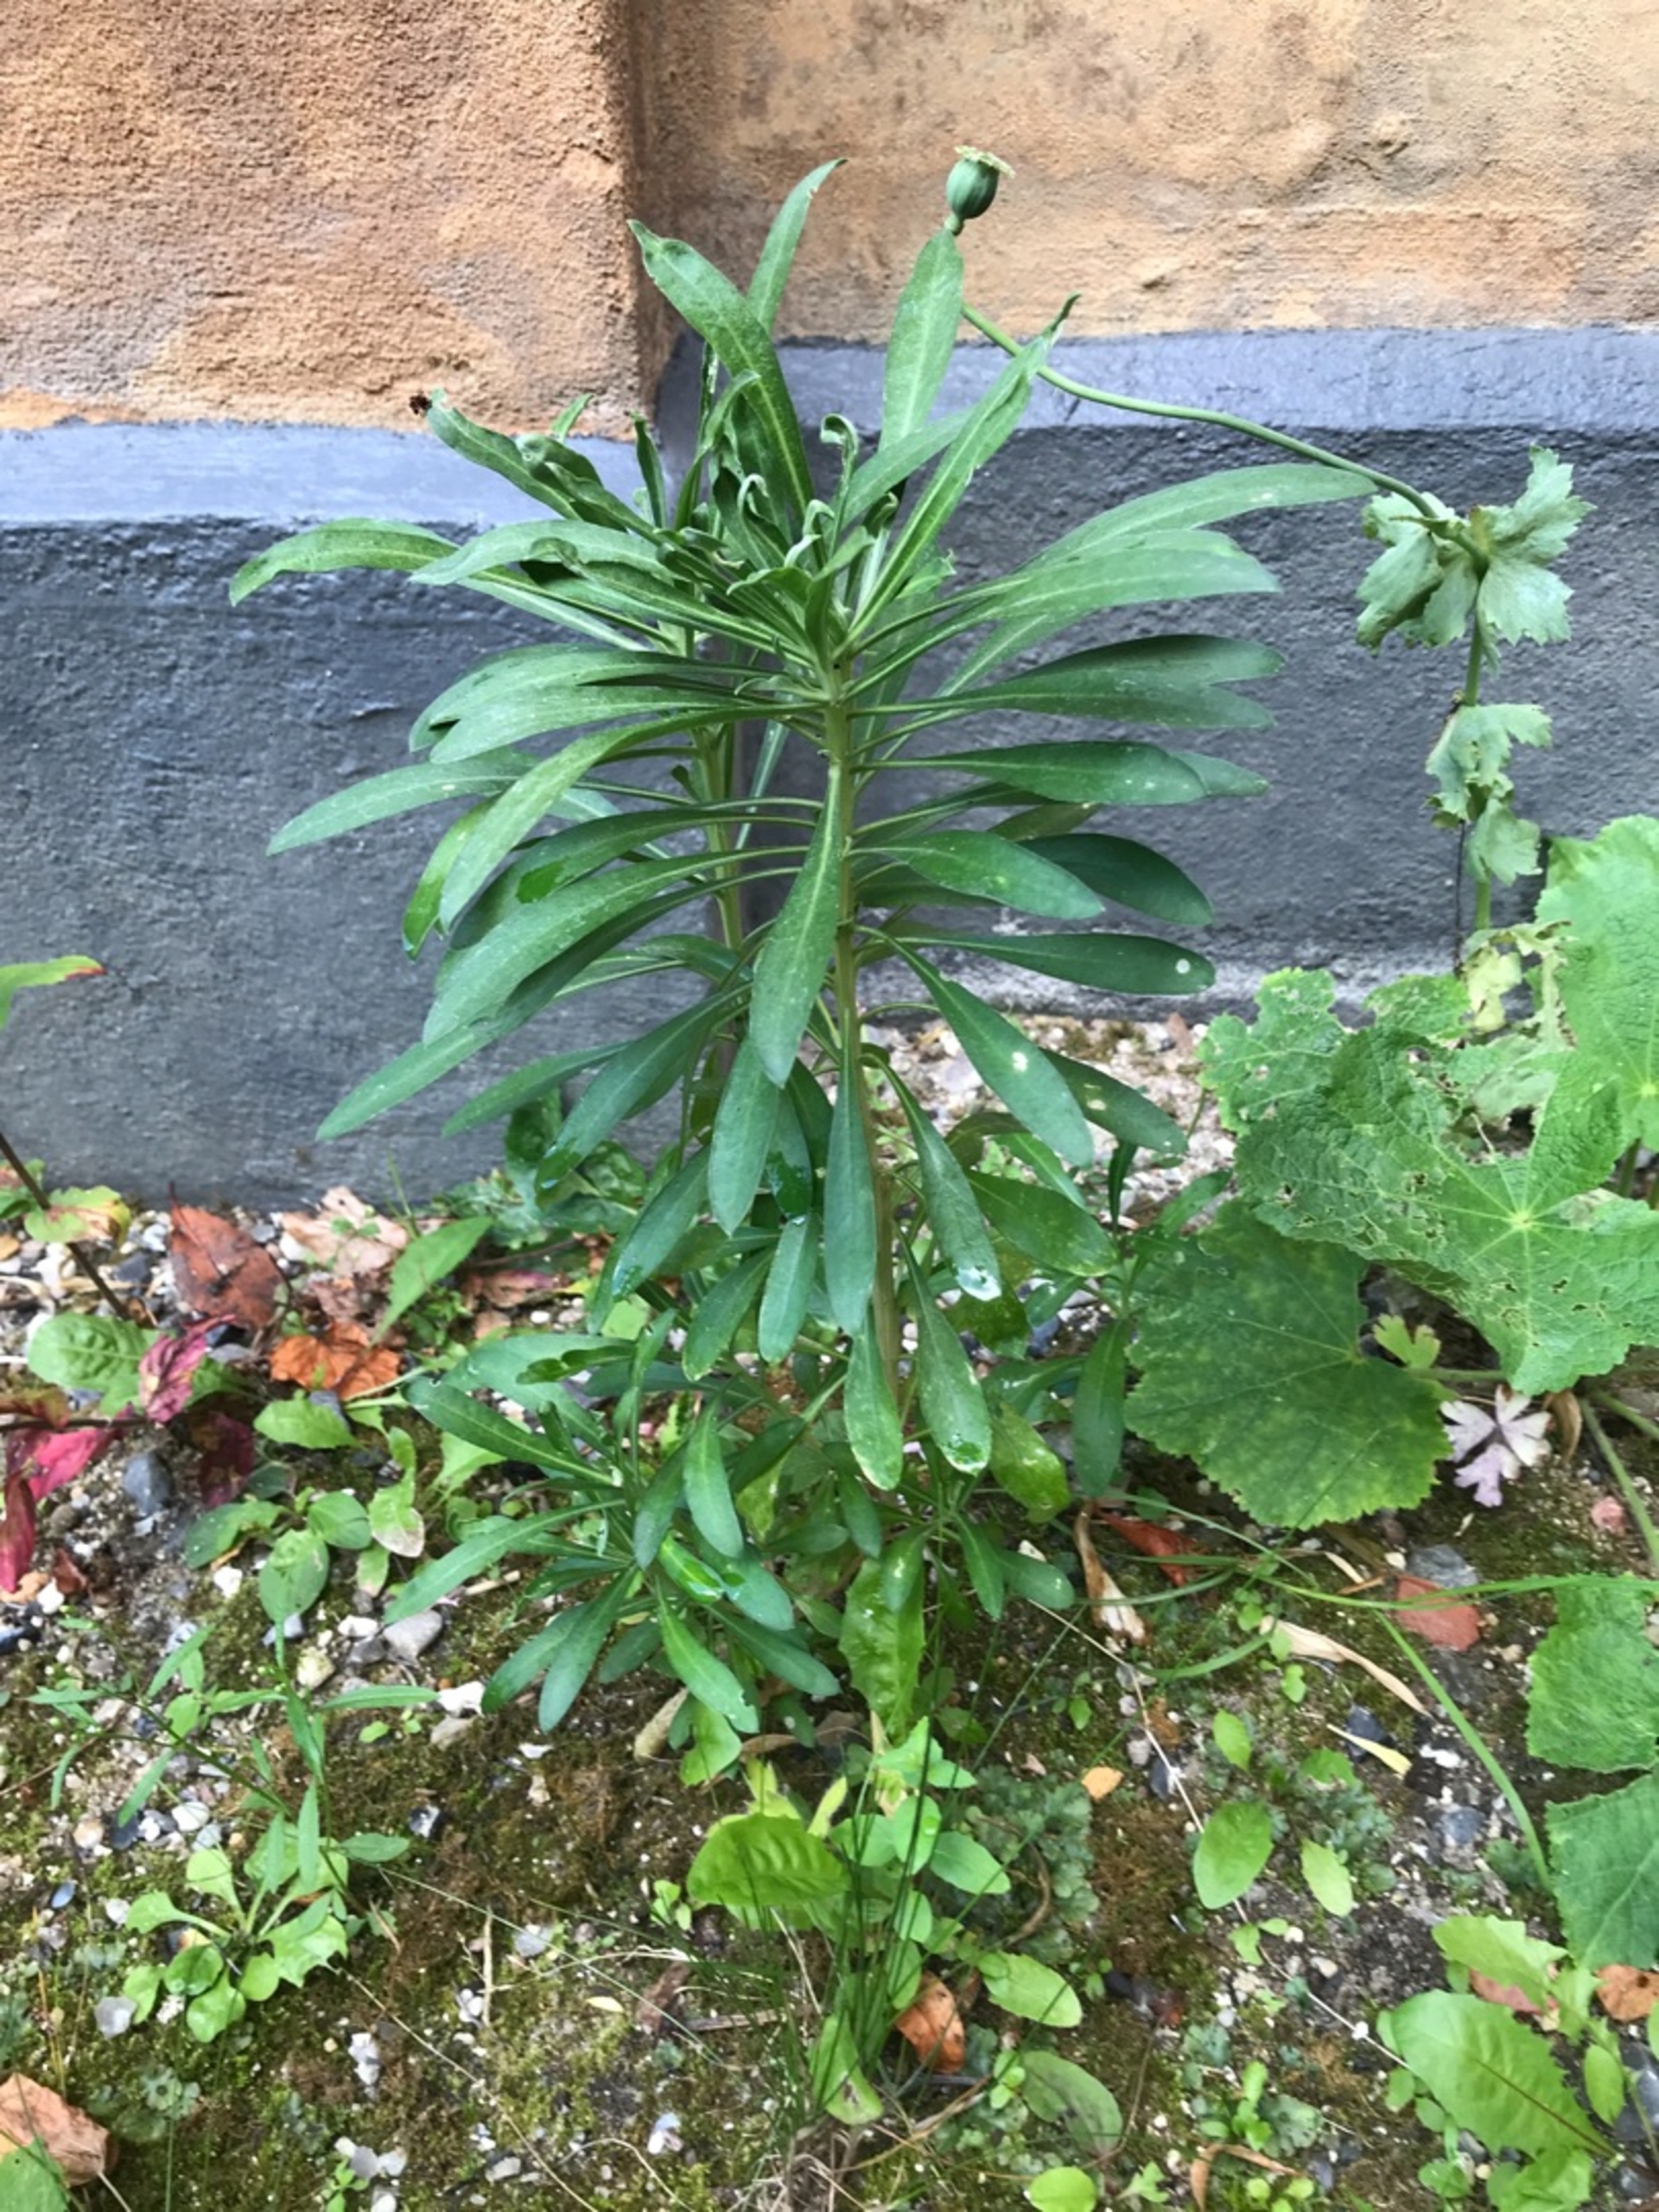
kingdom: Plantae
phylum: Tracheophyta
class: Magnoliopsida
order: Brassicales
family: Brassicaceae
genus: Erysimum
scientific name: Erysimum cheiri
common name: Gyldenlak
